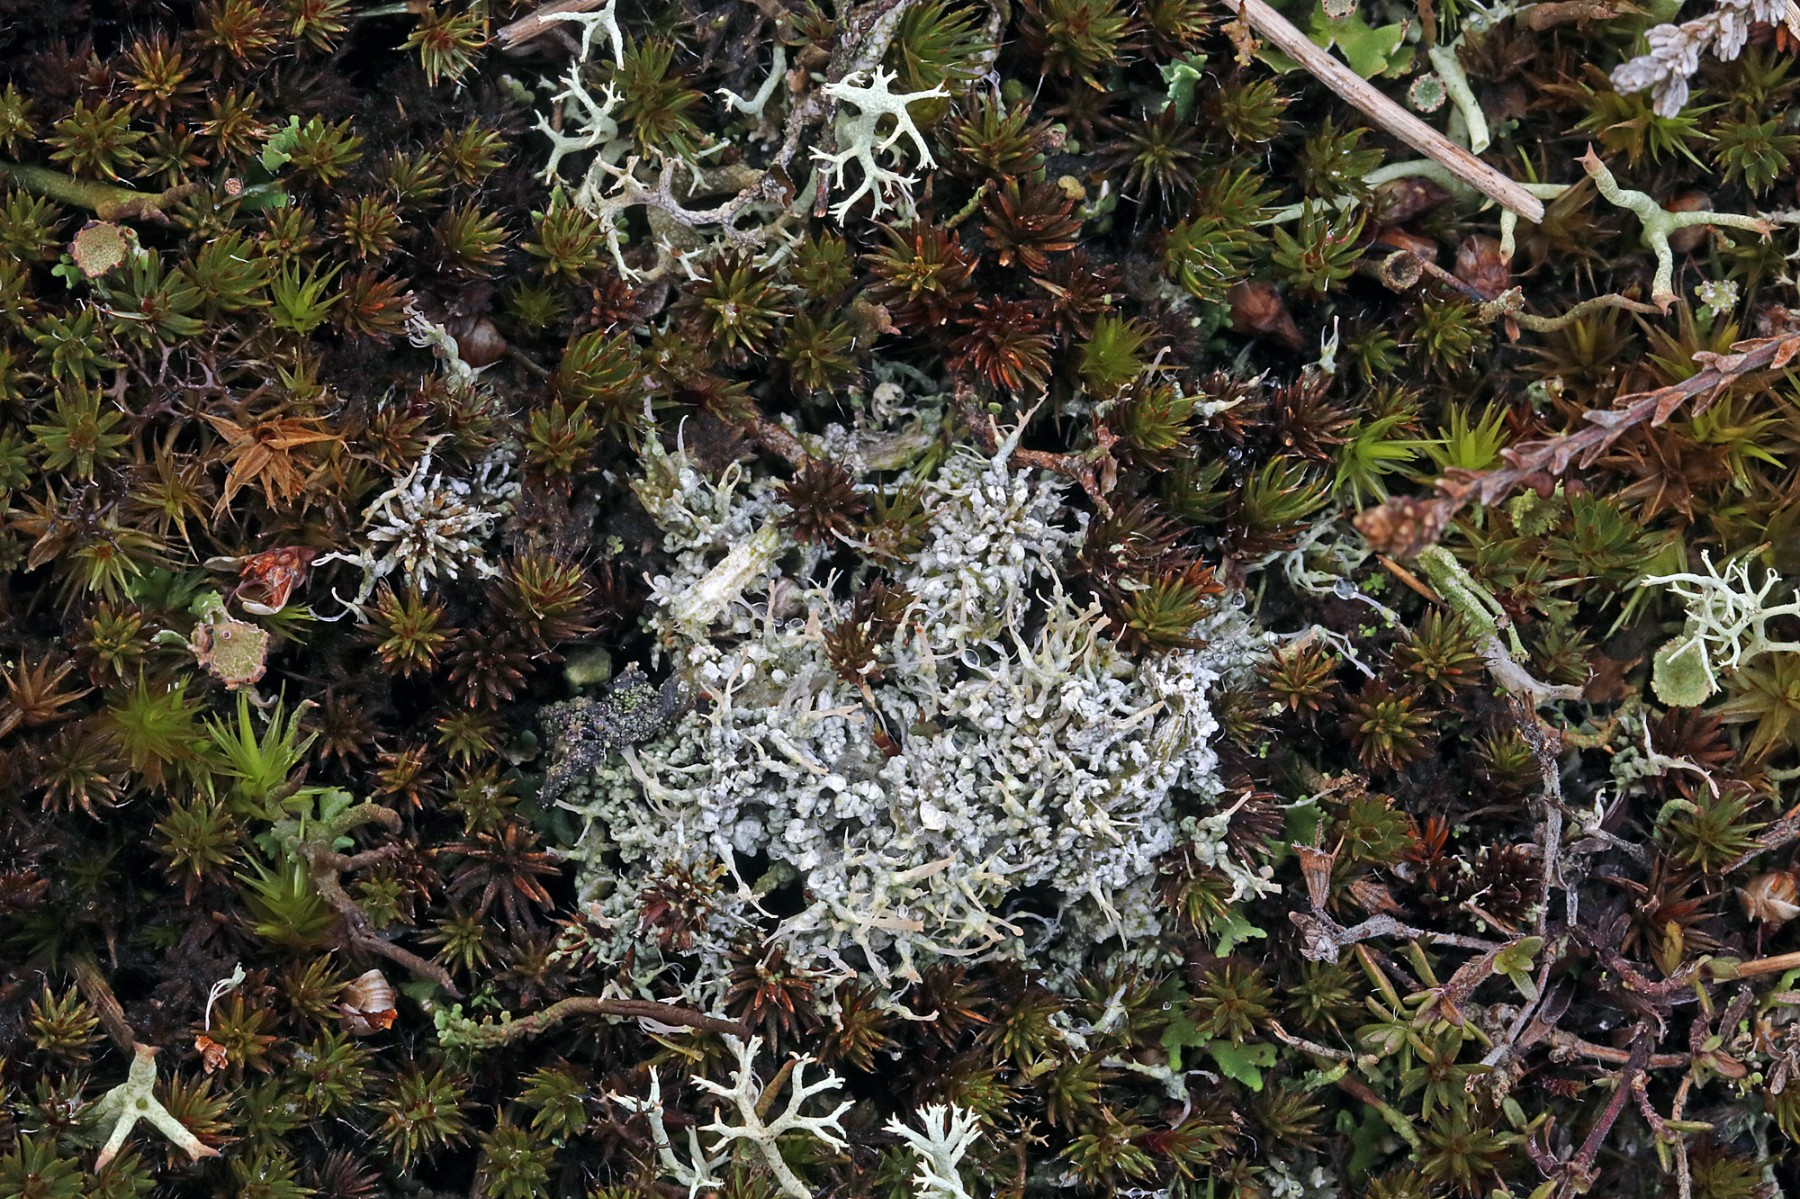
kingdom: Fungi
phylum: Ascomycota
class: Lecanoromycetes
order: Pertusariales
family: Ochrolechiaceae
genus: Ochrolechia
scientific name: Ochrolechia frigida
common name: fjeld-blegskivelav
